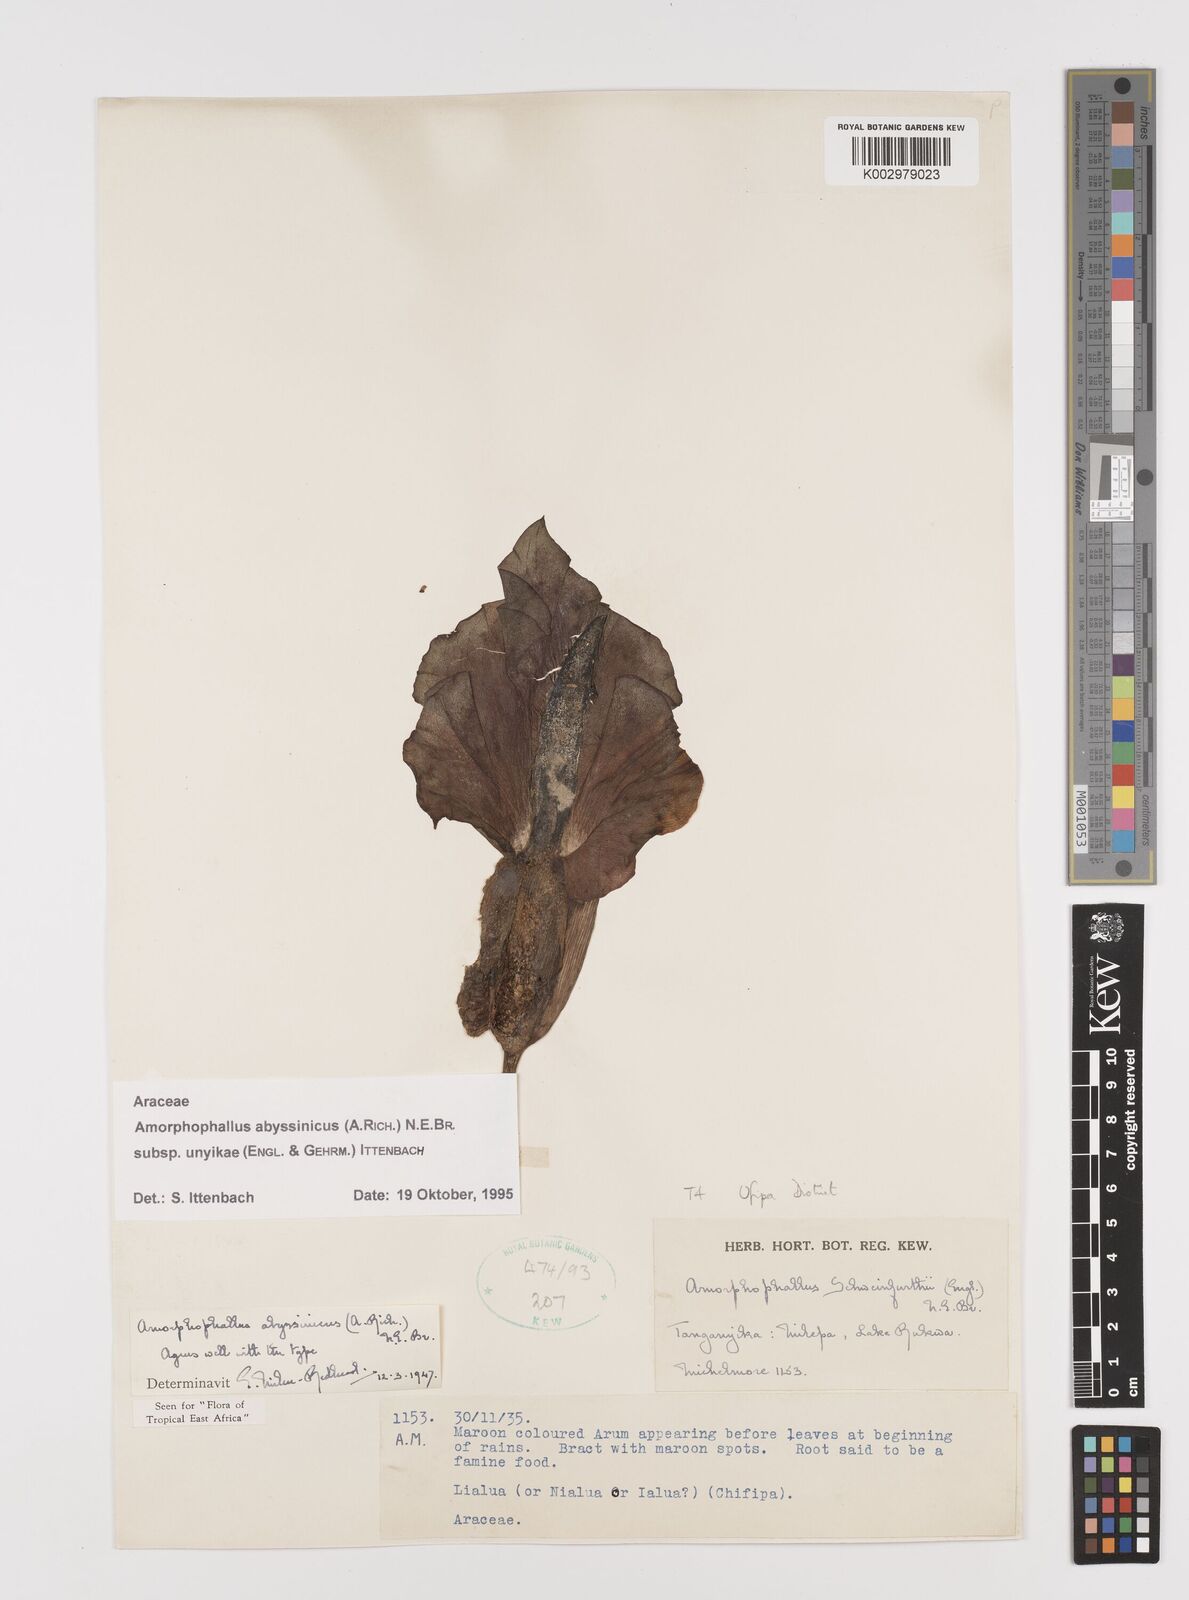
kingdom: Plantae
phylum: Tracheophyta
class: Liliopsida
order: Alismatales
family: Araceae
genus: Amorphophallus
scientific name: Amorphophallus abyssinicus
